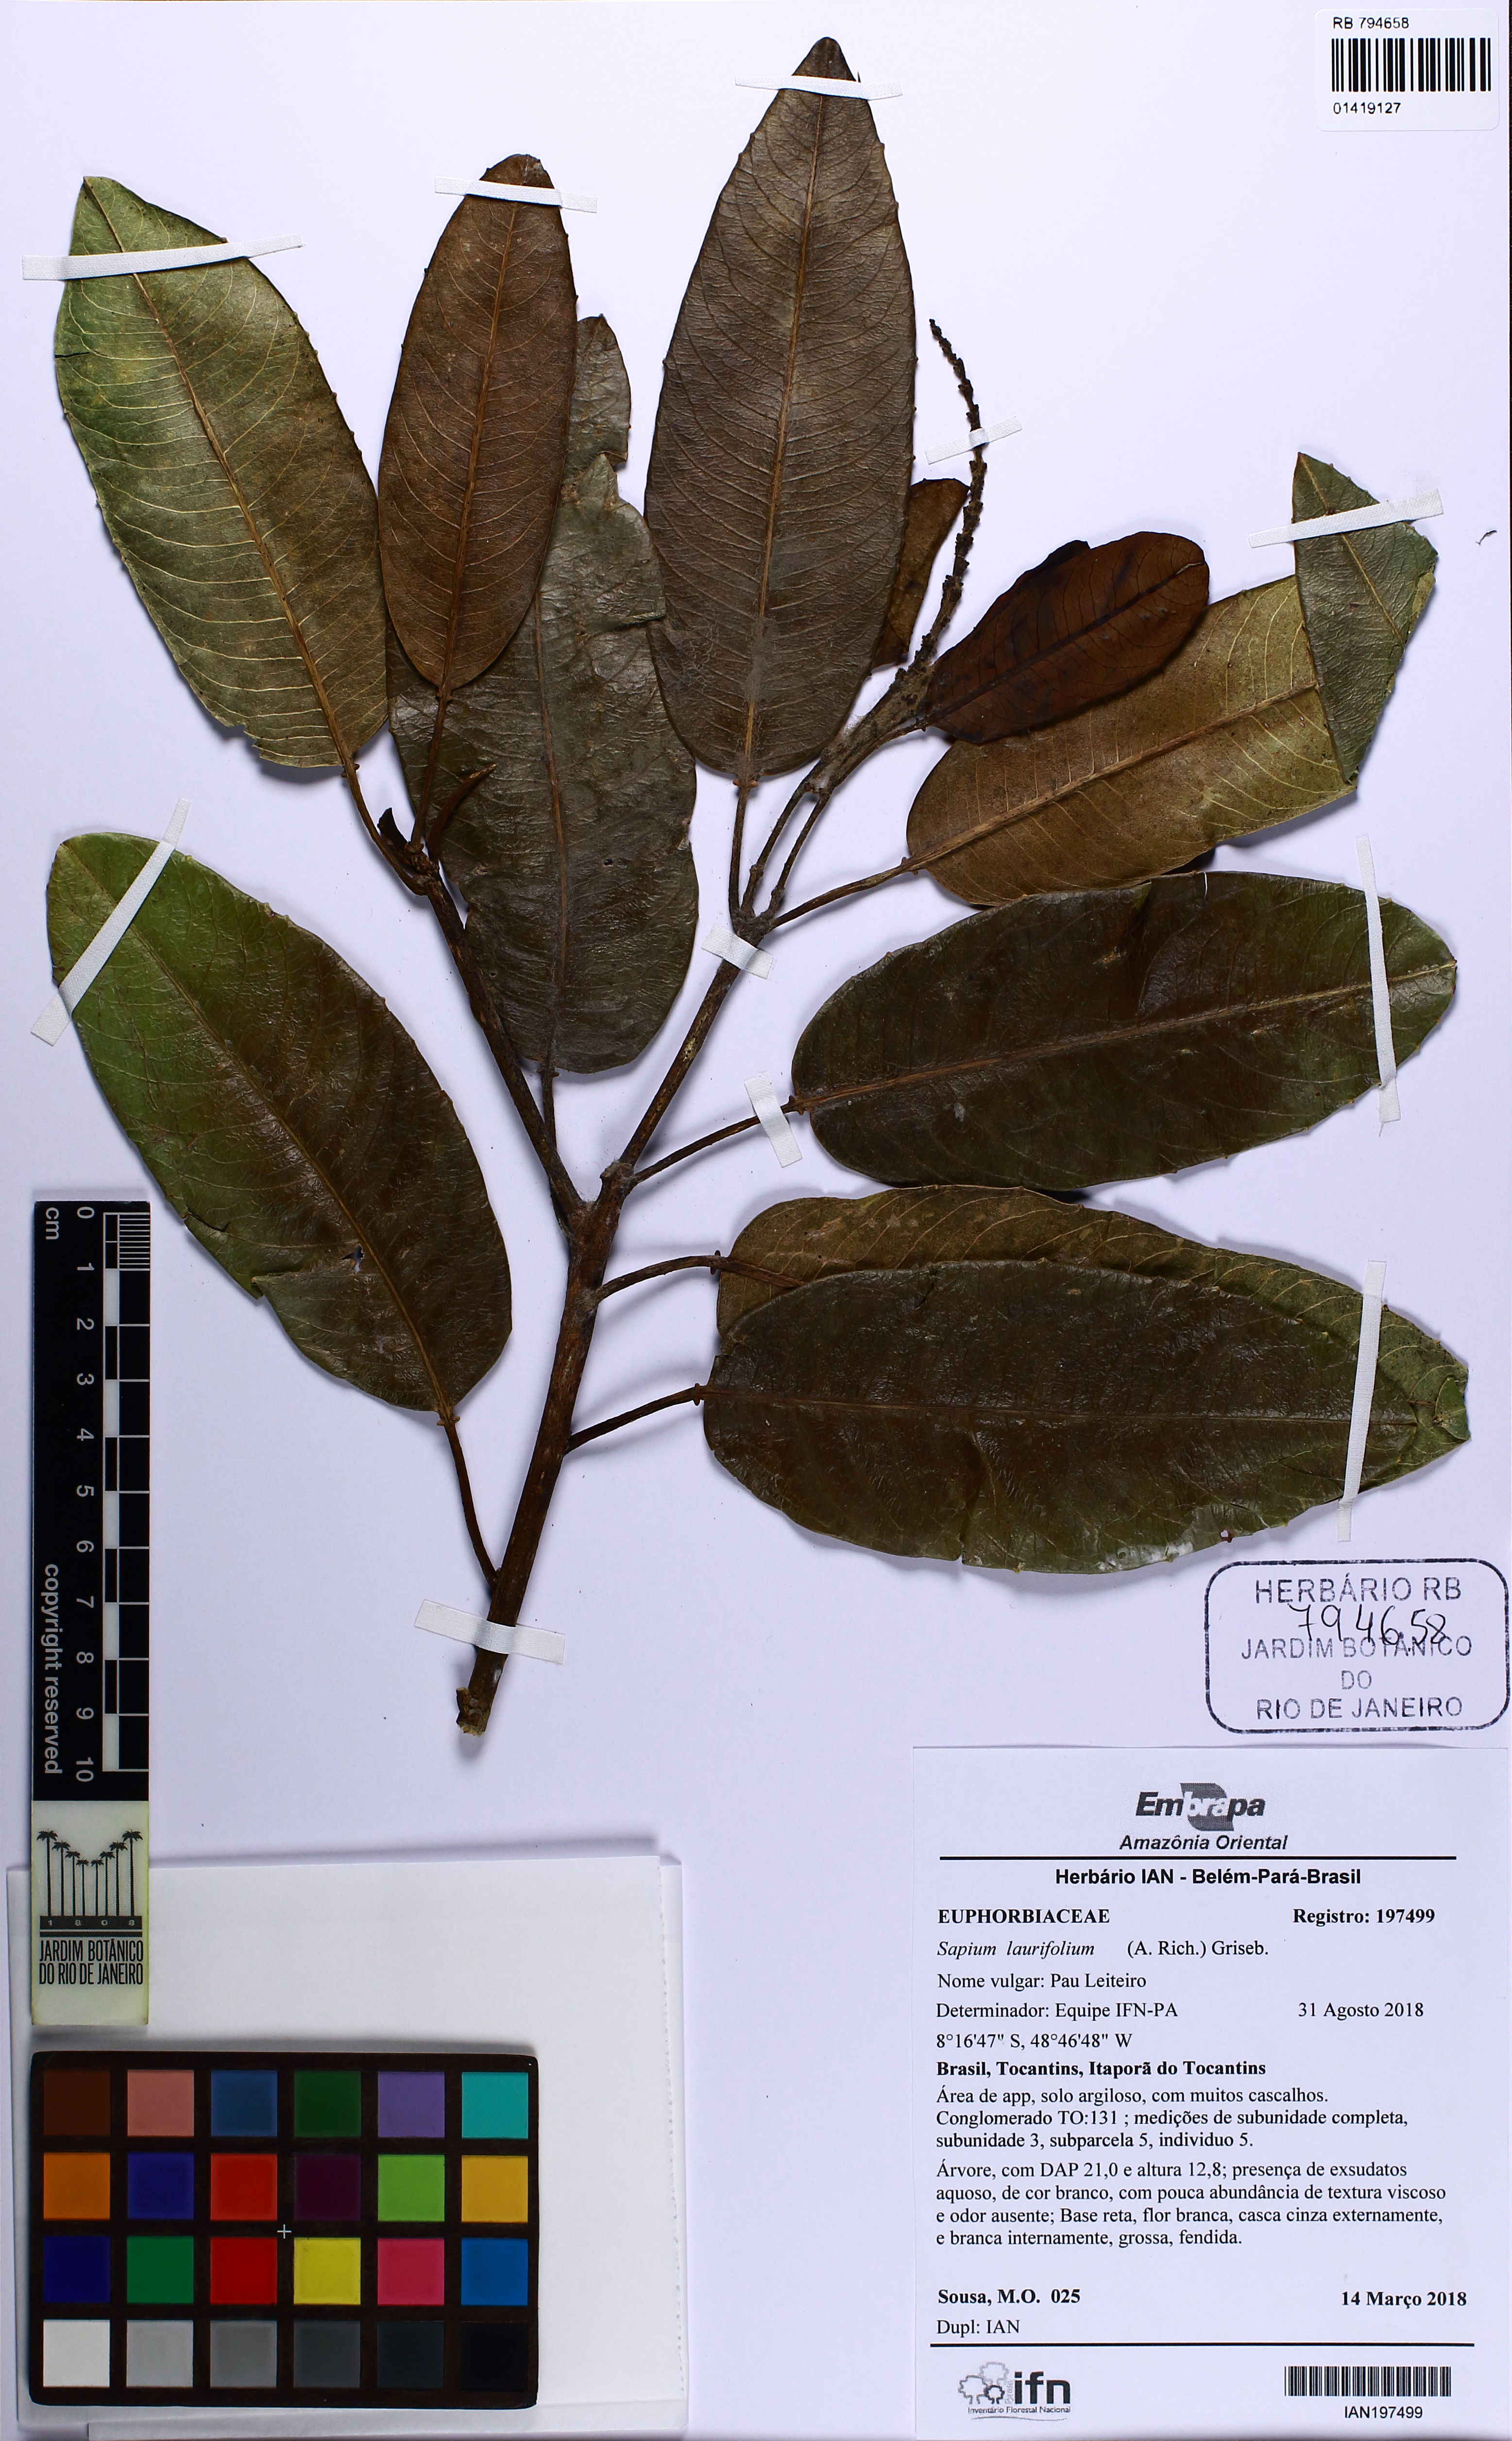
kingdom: Plantae
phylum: Tracheophyta
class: Magnoliopsida
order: Malpighiales
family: Euphorbiaceae
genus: Sapium
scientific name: Sapium laurifolium
